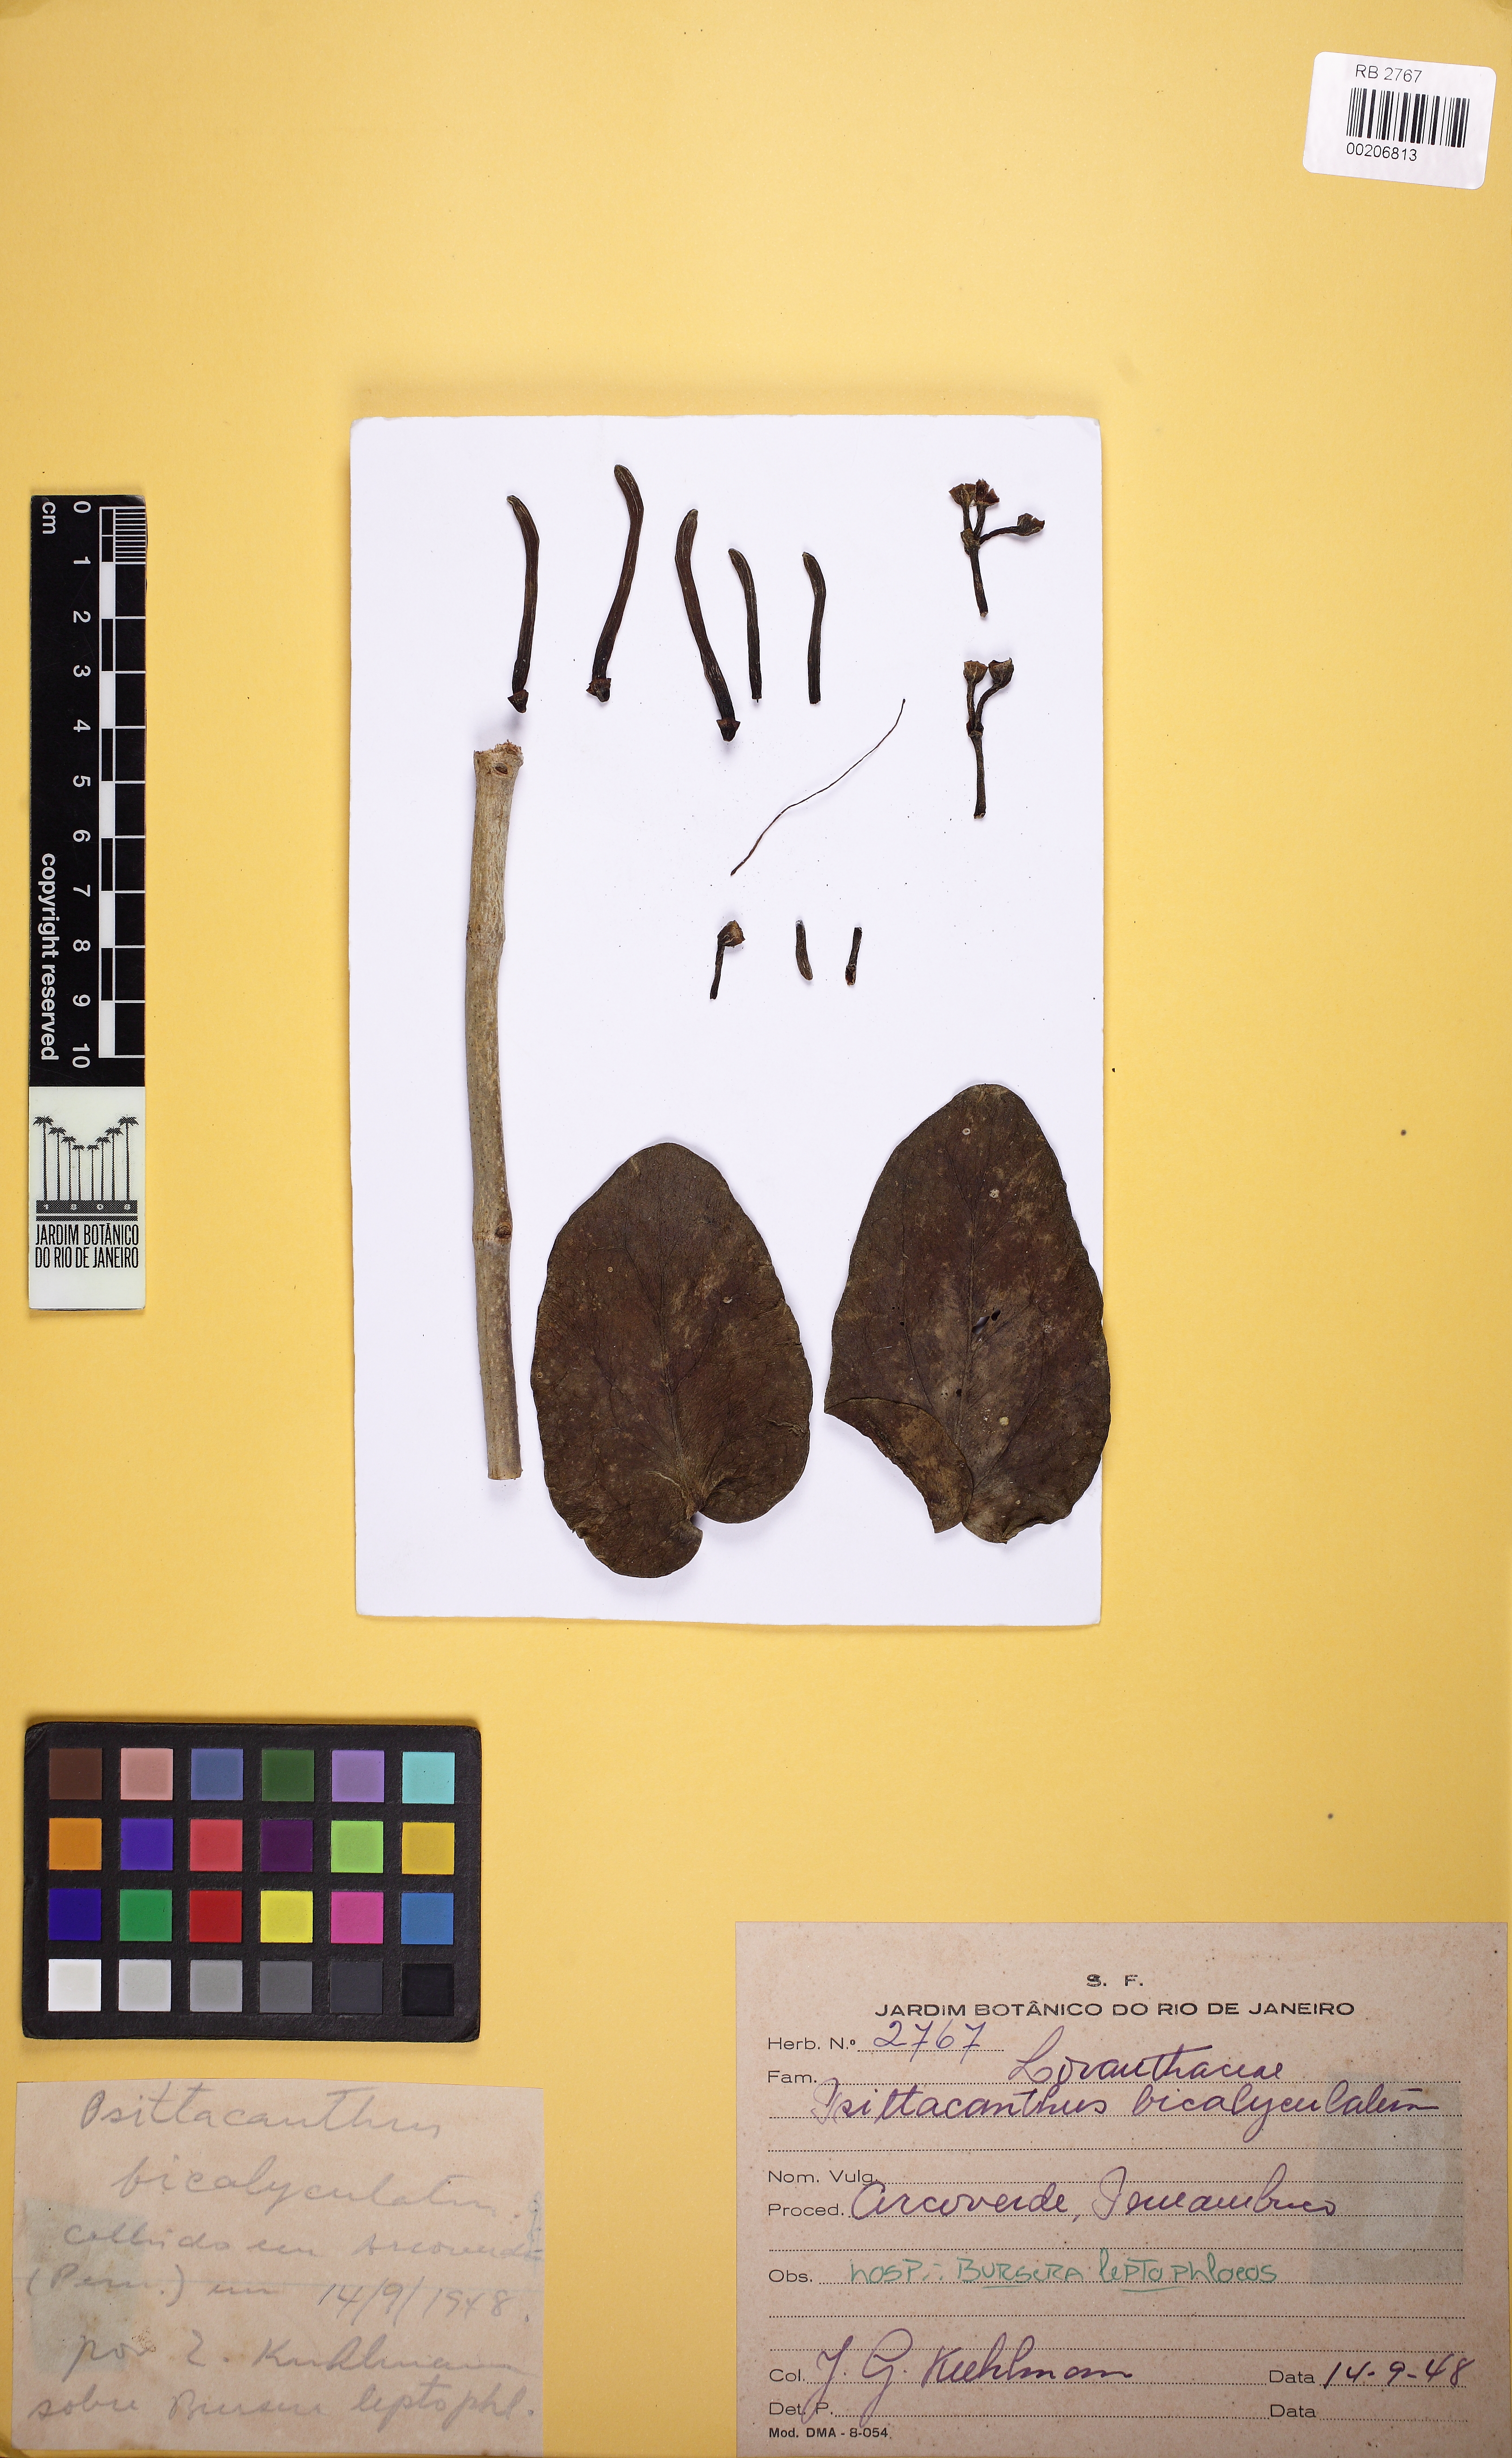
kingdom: Plantae
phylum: Tracheophyta
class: Magnoliopsida
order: Santalales
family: Loranthaceae
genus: Psittacanthus
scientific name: Psittacanthus cordatus
